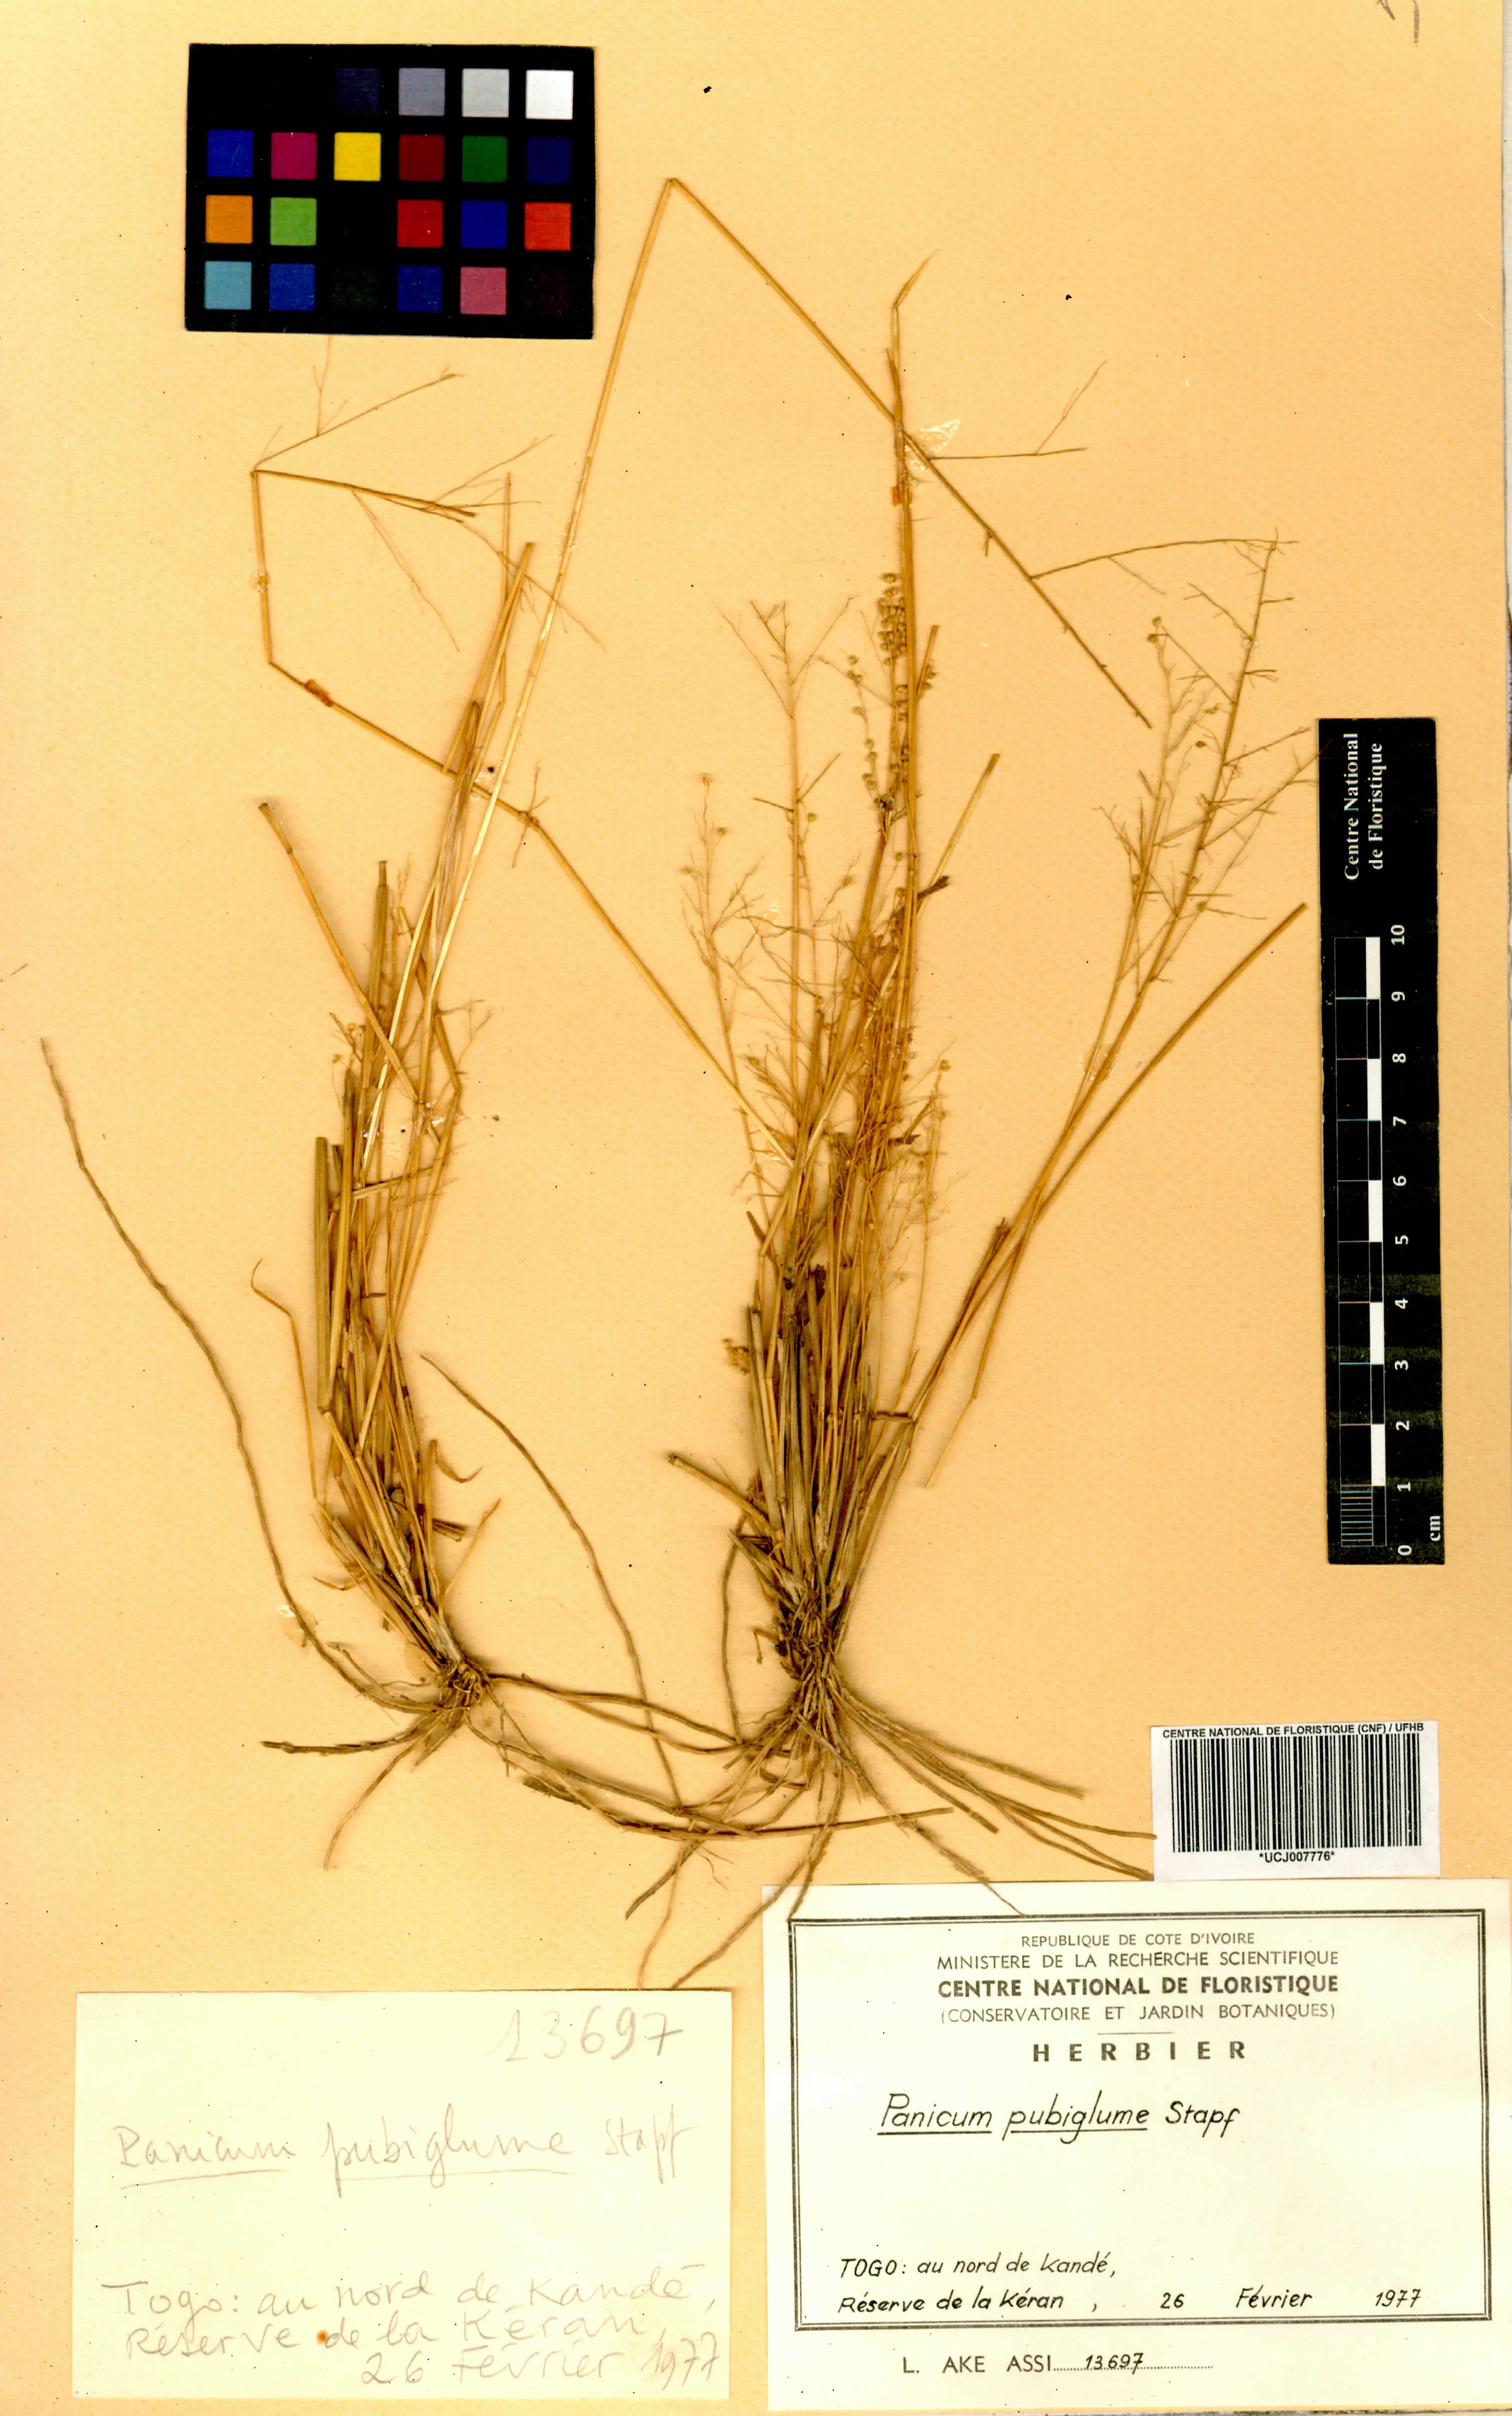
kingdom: Plantae
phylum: Tracheophyta
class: Liliopsida
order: Poales
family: Poaceae
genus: Trichanthecium
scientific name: Trichanthecium brazzavillense
